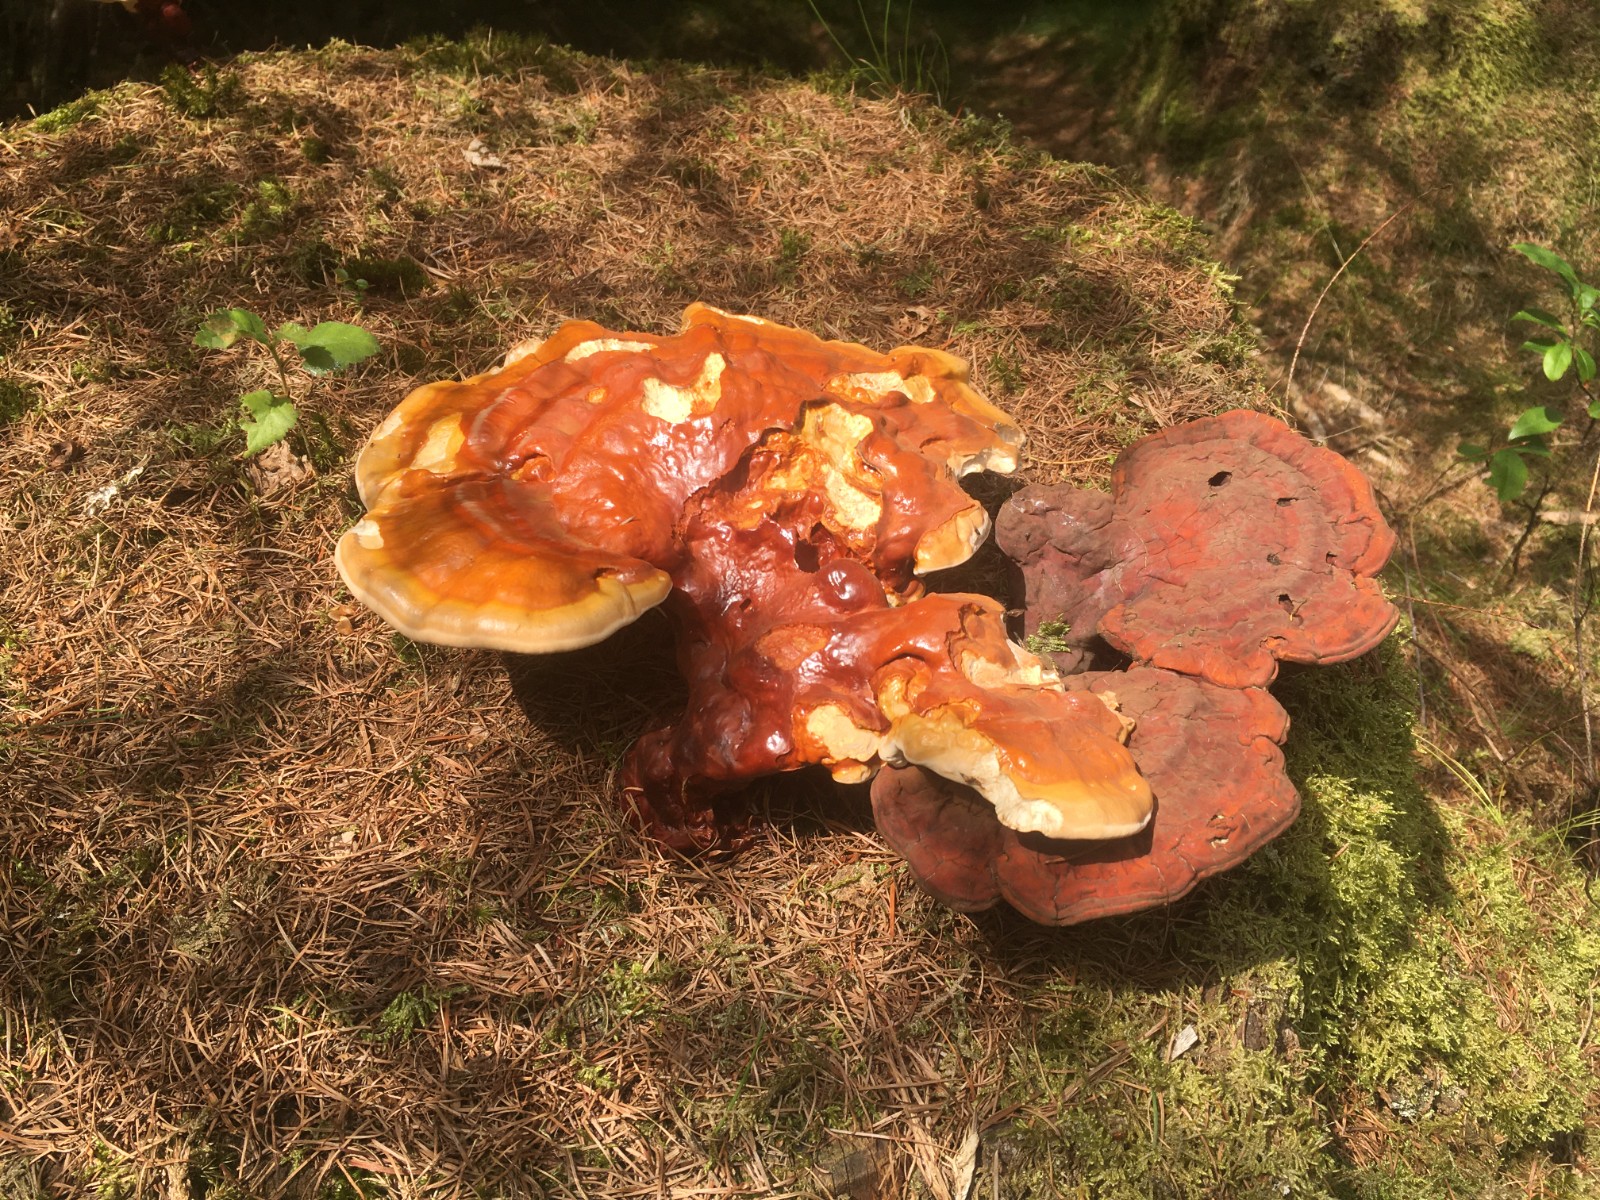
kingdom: Fungi
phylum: Basidiomycota
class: Agaricomycetes
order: Polyporales
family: Polyporaceae
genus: Ganoderma
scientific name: Ganoderma lucidum
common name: skinnende lakporesvamp
